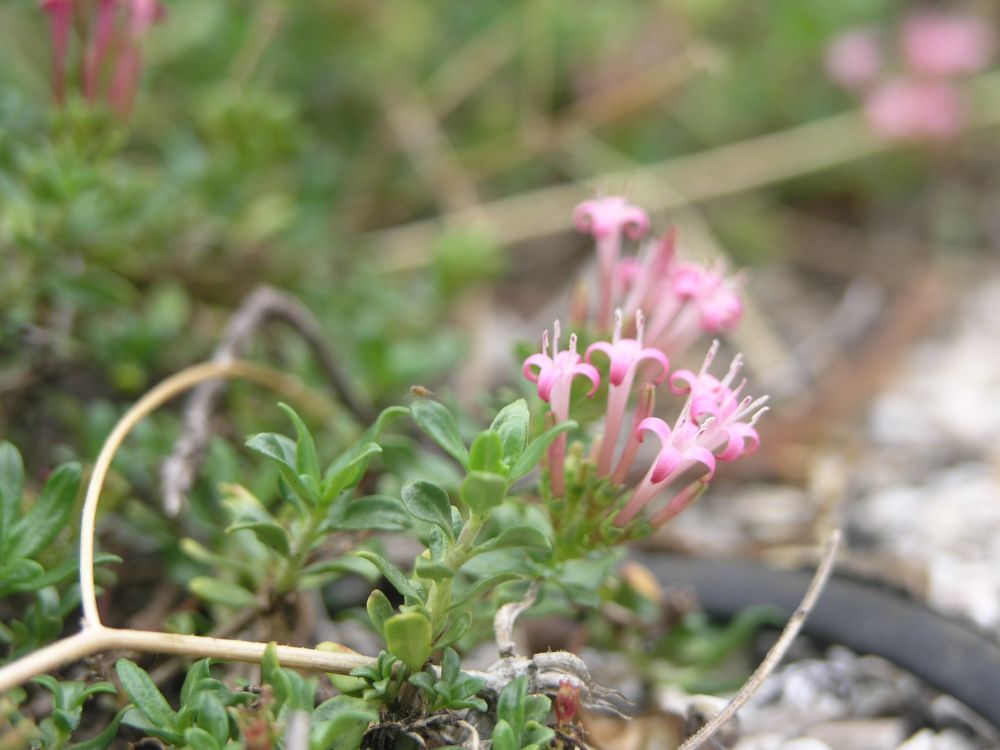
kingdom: Plantae
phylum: Tracheophyta
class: Magnoliopsida
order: Gentianales
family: Rubiaceae
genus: Plocama
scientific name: Plocama calabrica
